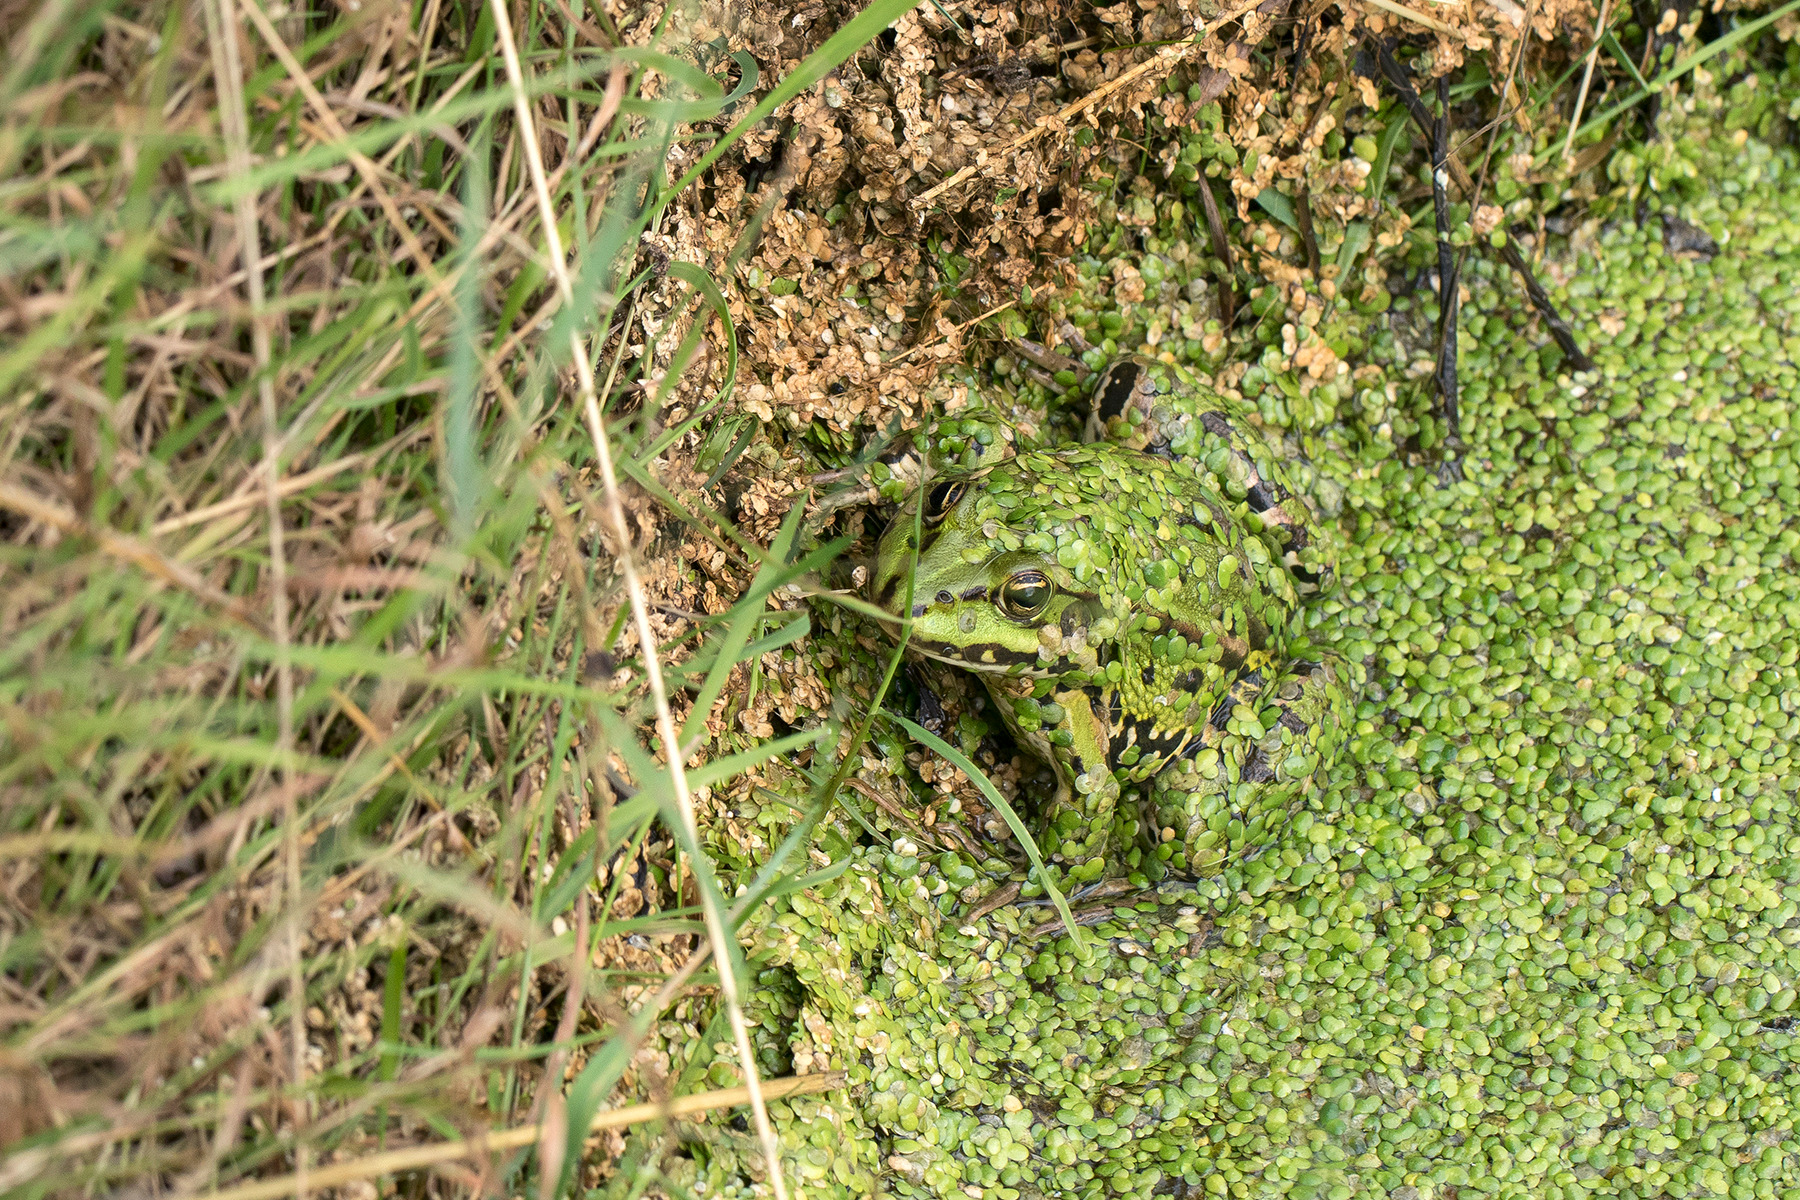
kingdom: Animalia
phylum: Chordata
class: Amphibia
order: Anura
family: Ranidae
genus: Pelophylax
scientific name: Pelophylax lessonae
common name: Grøn frø
